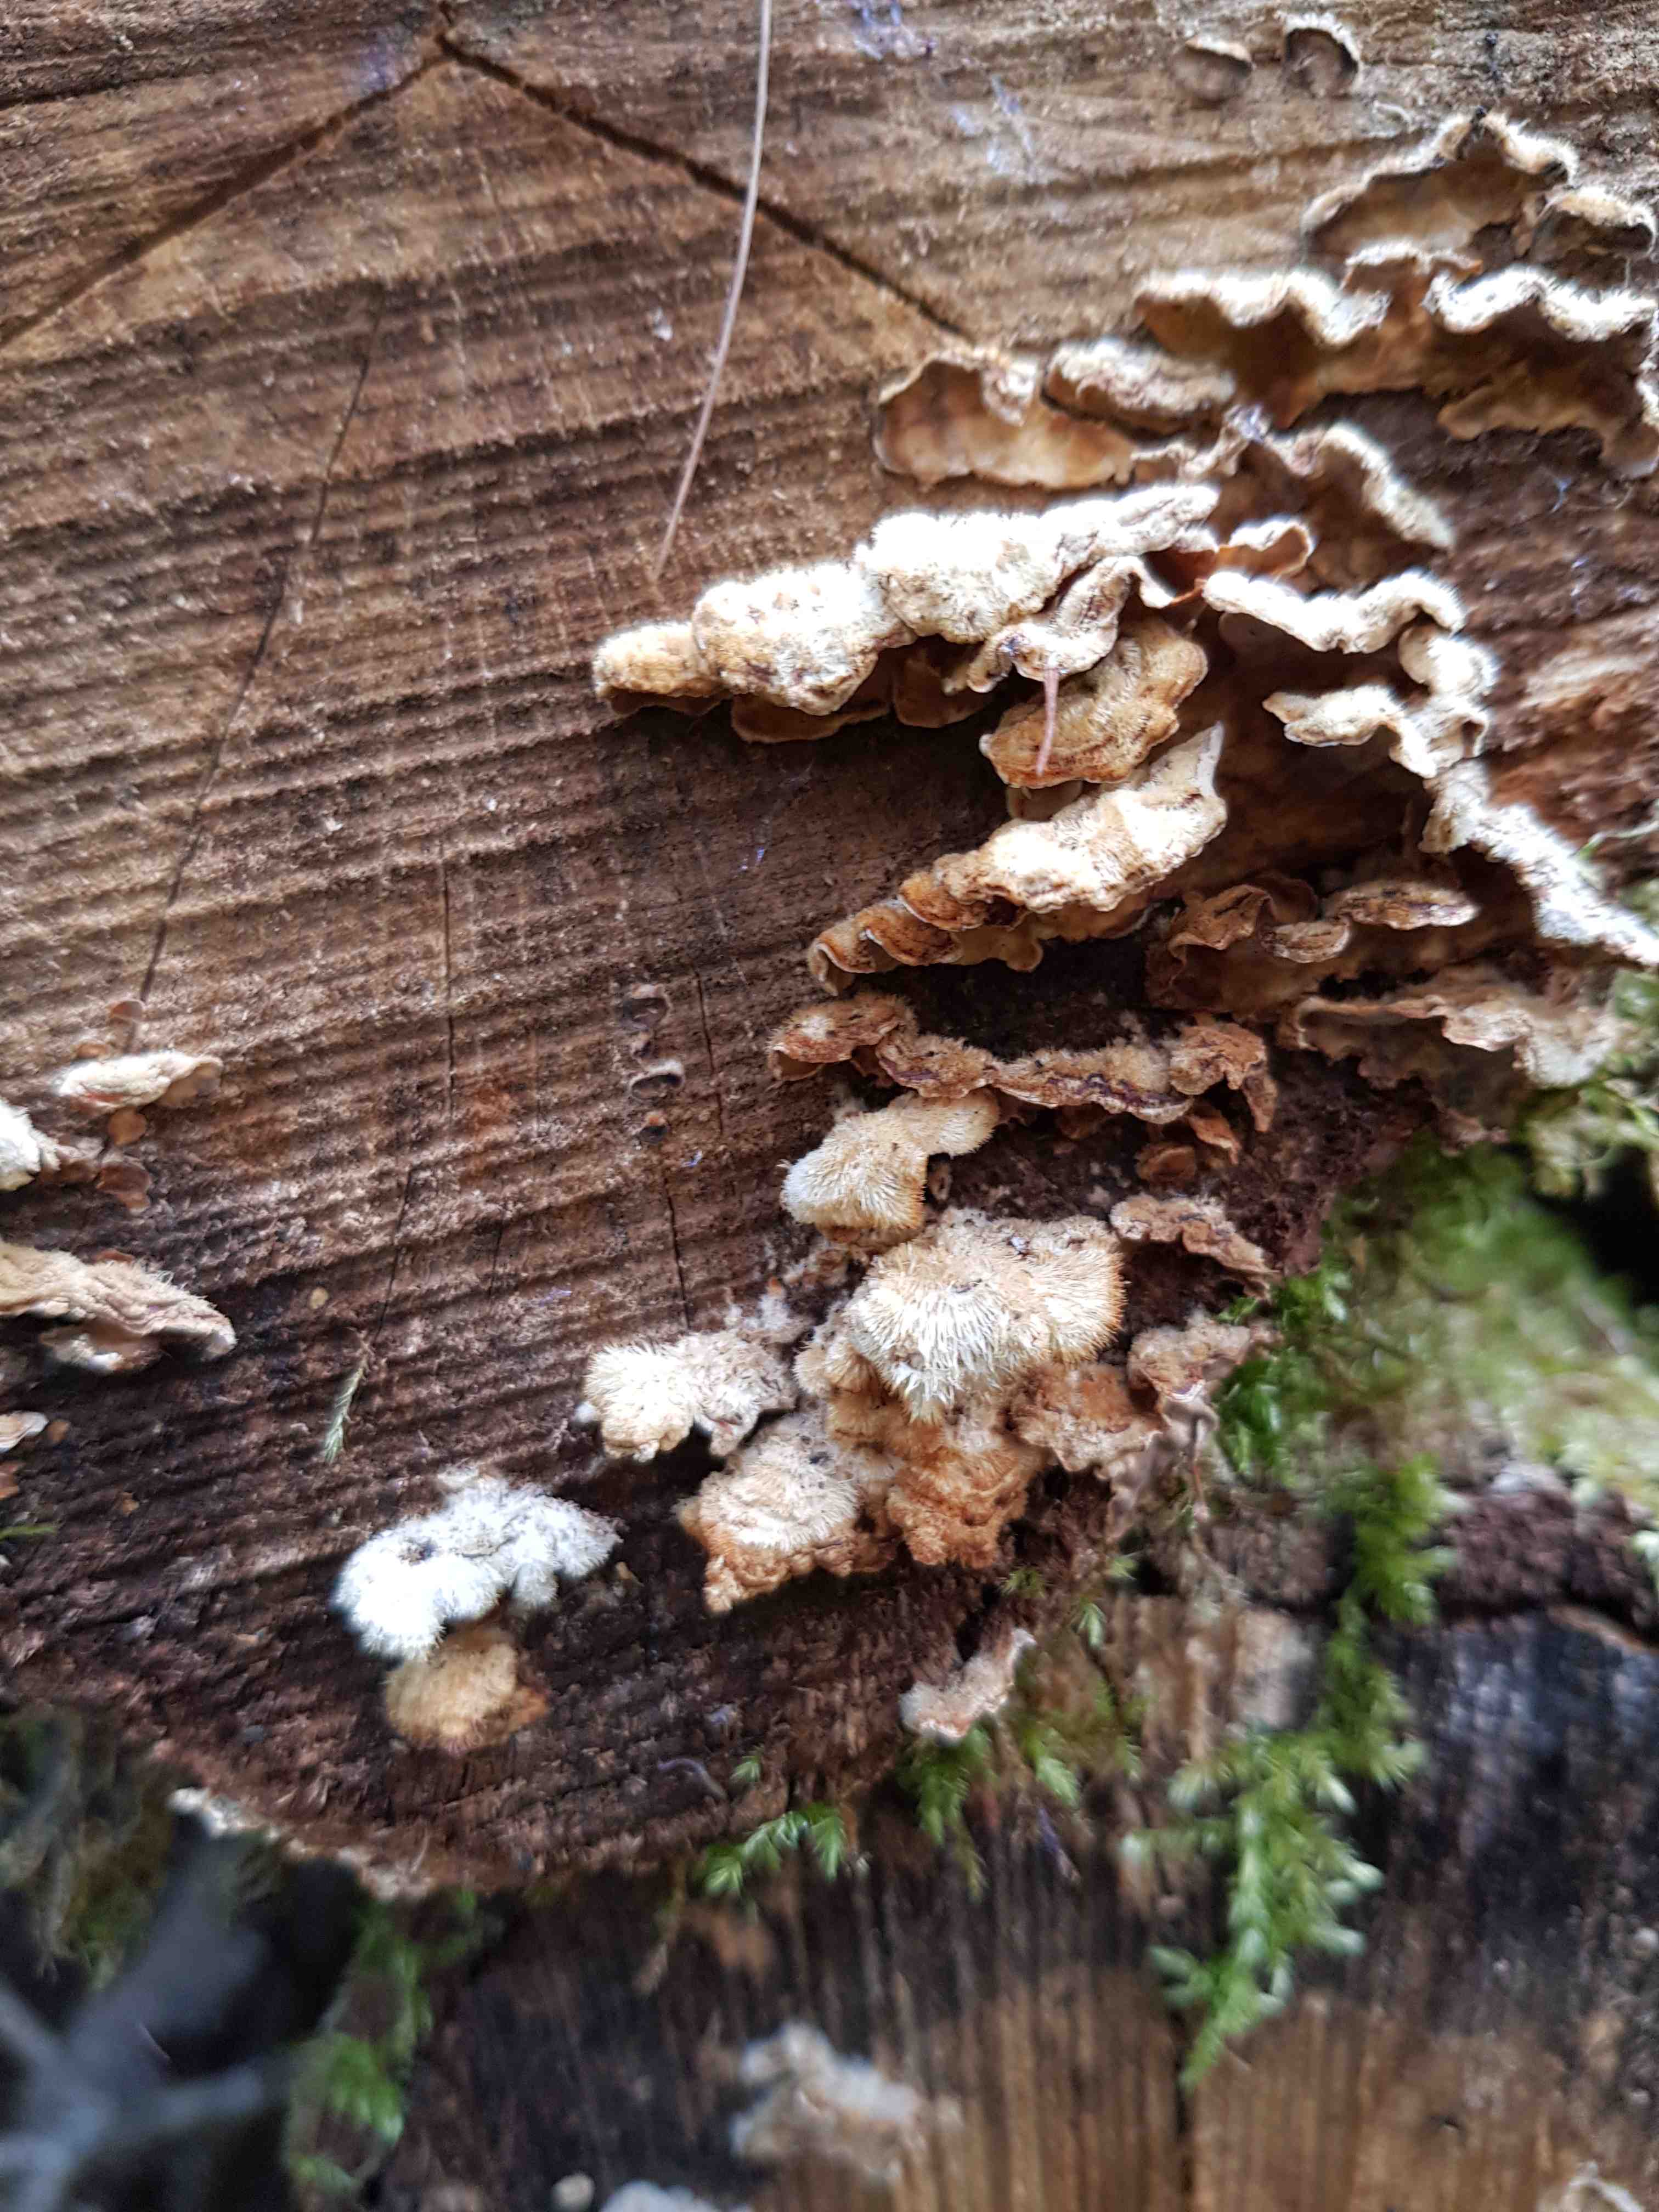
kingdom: Fungi
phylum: Basidiomycota
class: Agaricomycetes
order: Russulales
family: Stereaceae
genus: Stereum
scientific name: Stereum hirsutum
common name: håret lædersvamp
